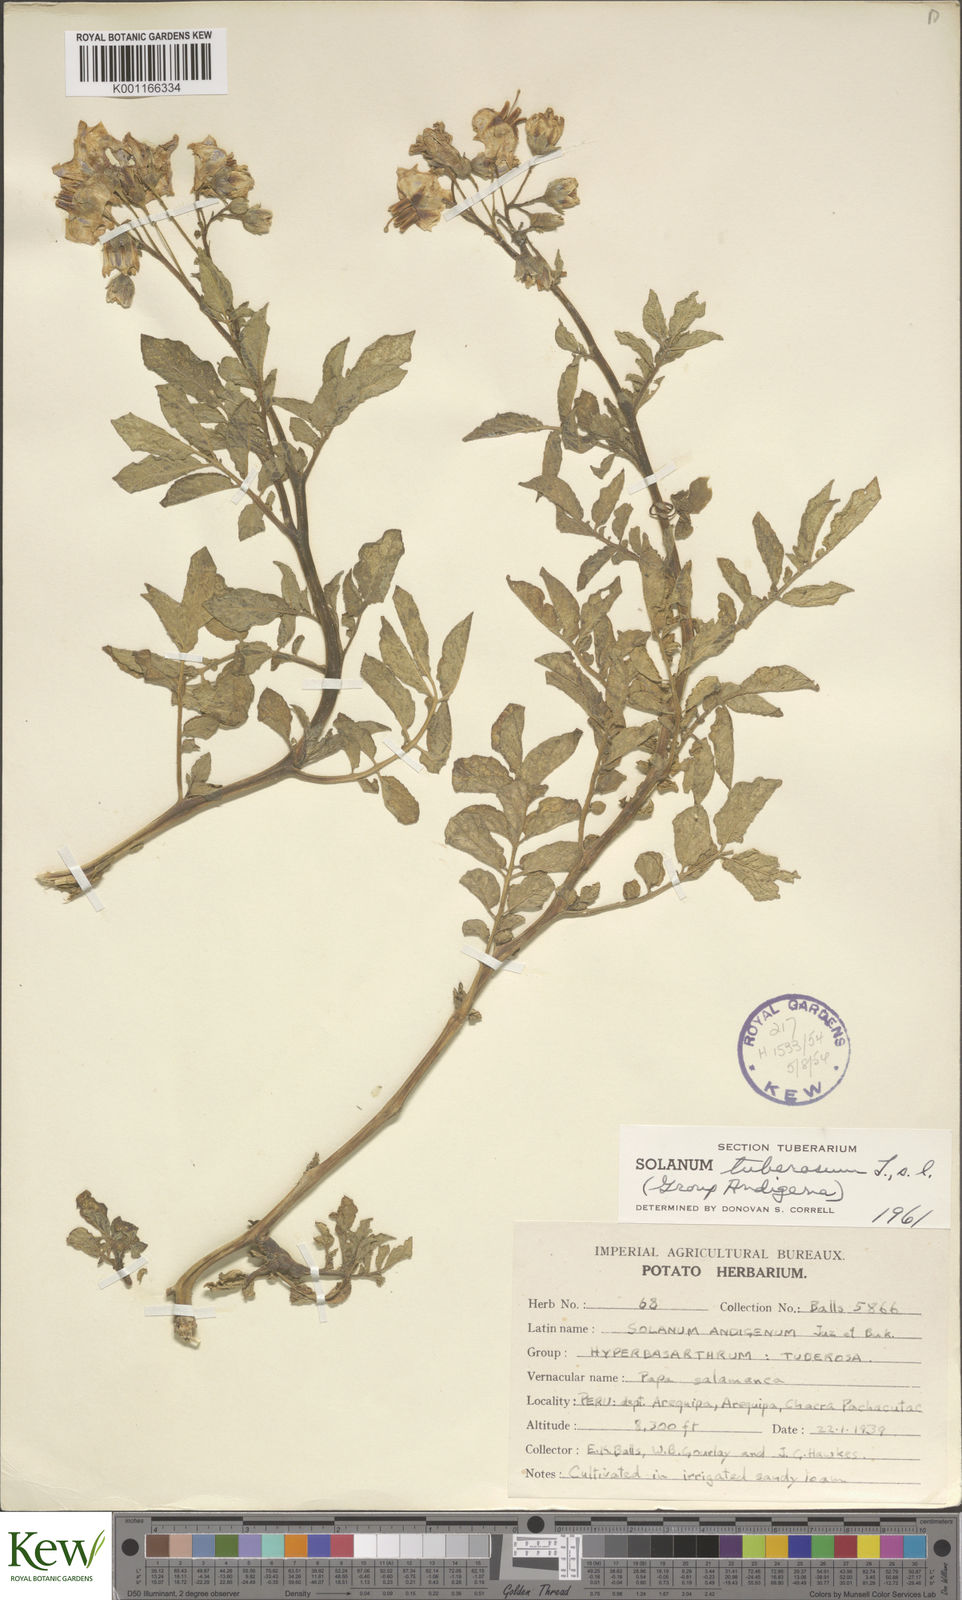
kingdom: Plantae
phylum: Tracheophyta
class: Magnoliopsida
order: Solanales
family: Solanaceae
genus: Solanum
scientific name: Solanum tuberosum
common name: Potato
